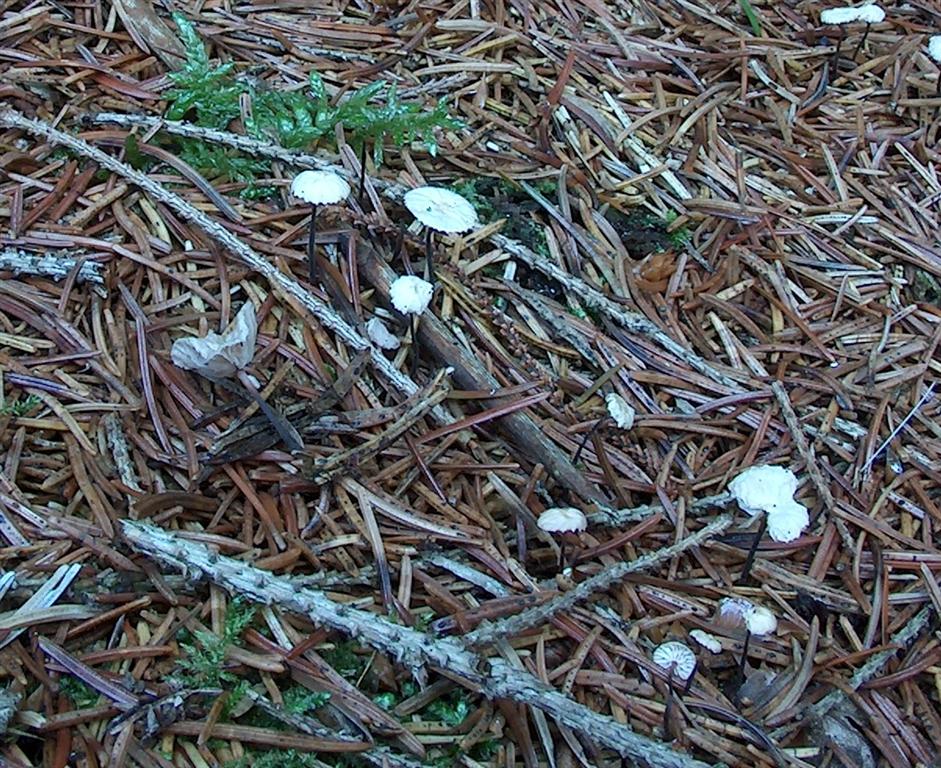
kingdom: Fungi
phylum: Basidiomycota
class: Agaricomycetes
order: Agaricales
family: Omphalotaceae
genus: Paragymnopus
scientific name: Paragymnopus perforans
